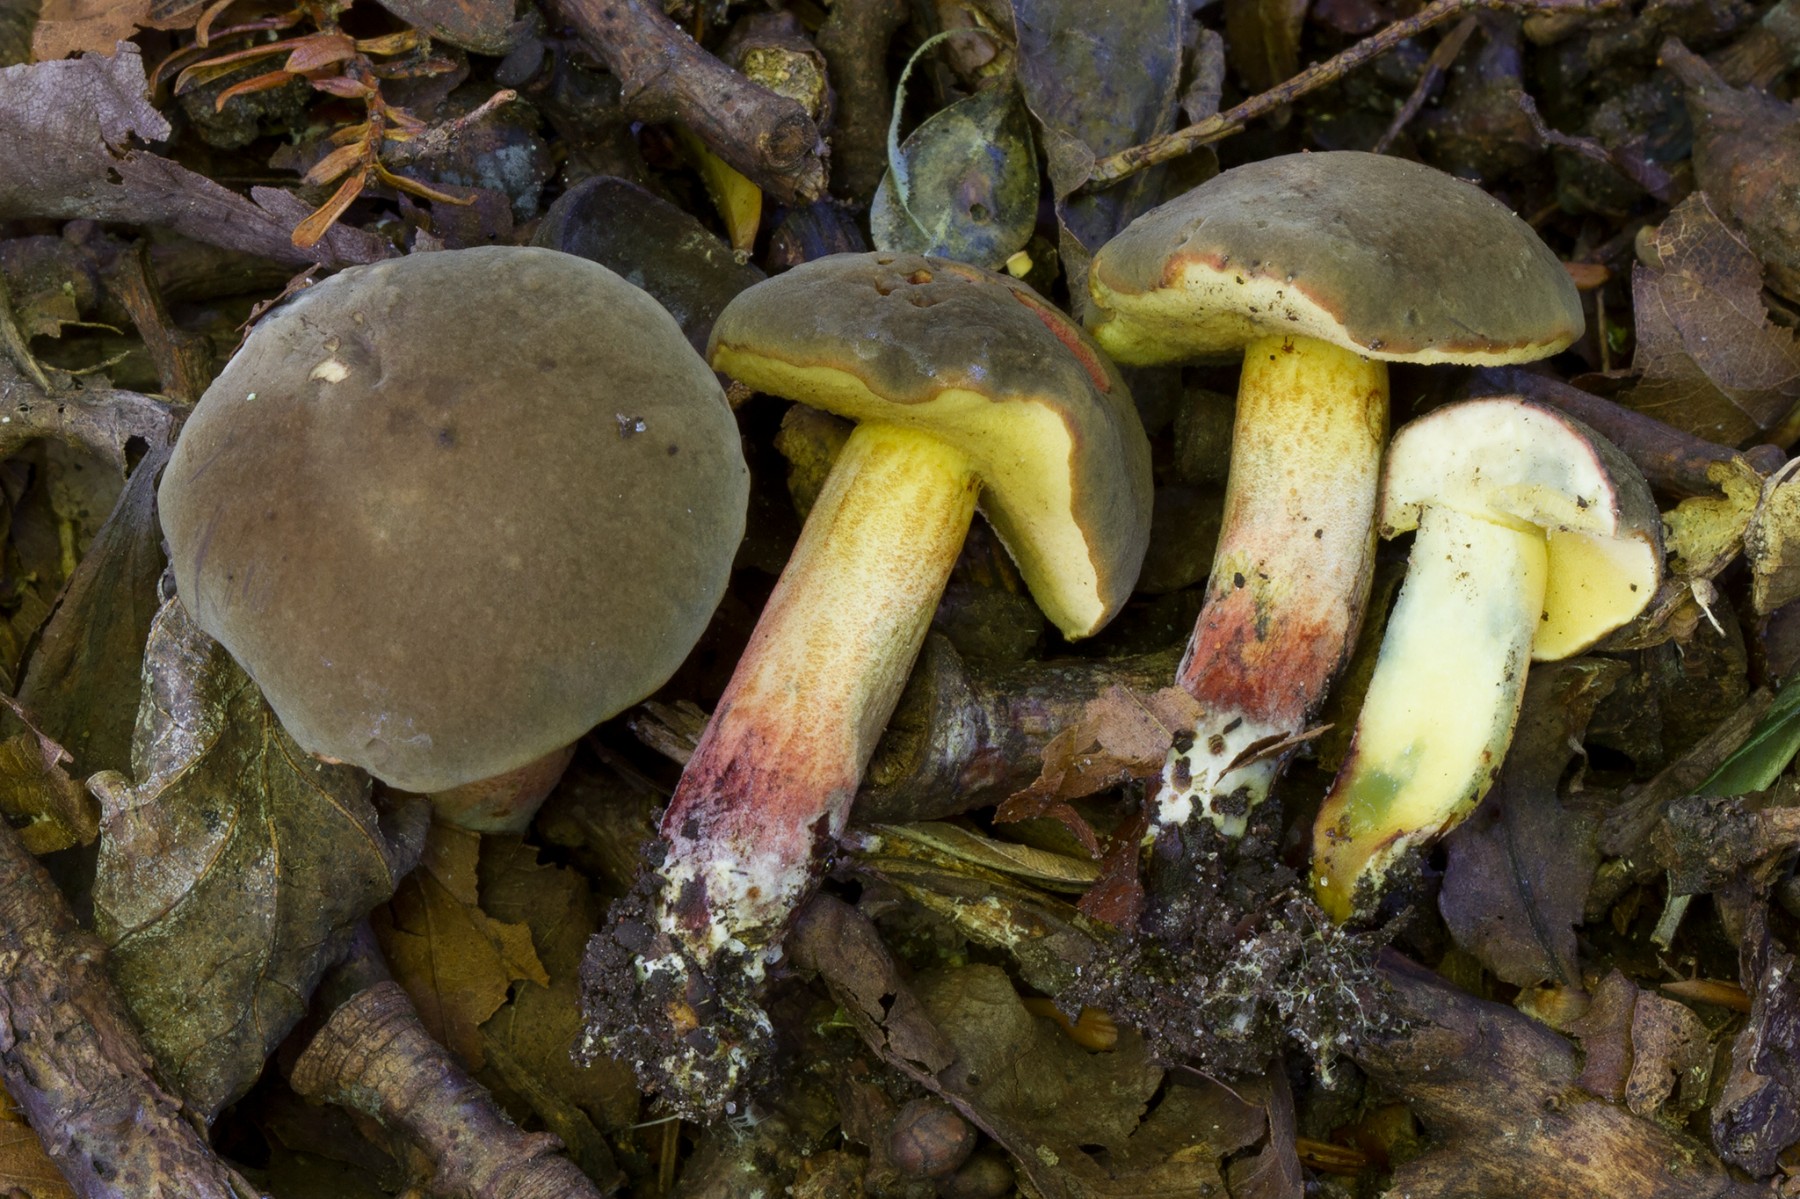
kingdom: Fungi
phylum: Basidiomycota
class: Agaricomycetes
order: Boletales
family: Boletaceae
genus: Xerocomellus
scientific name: Xerocomellus pruinatus
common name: dugget rørhat
